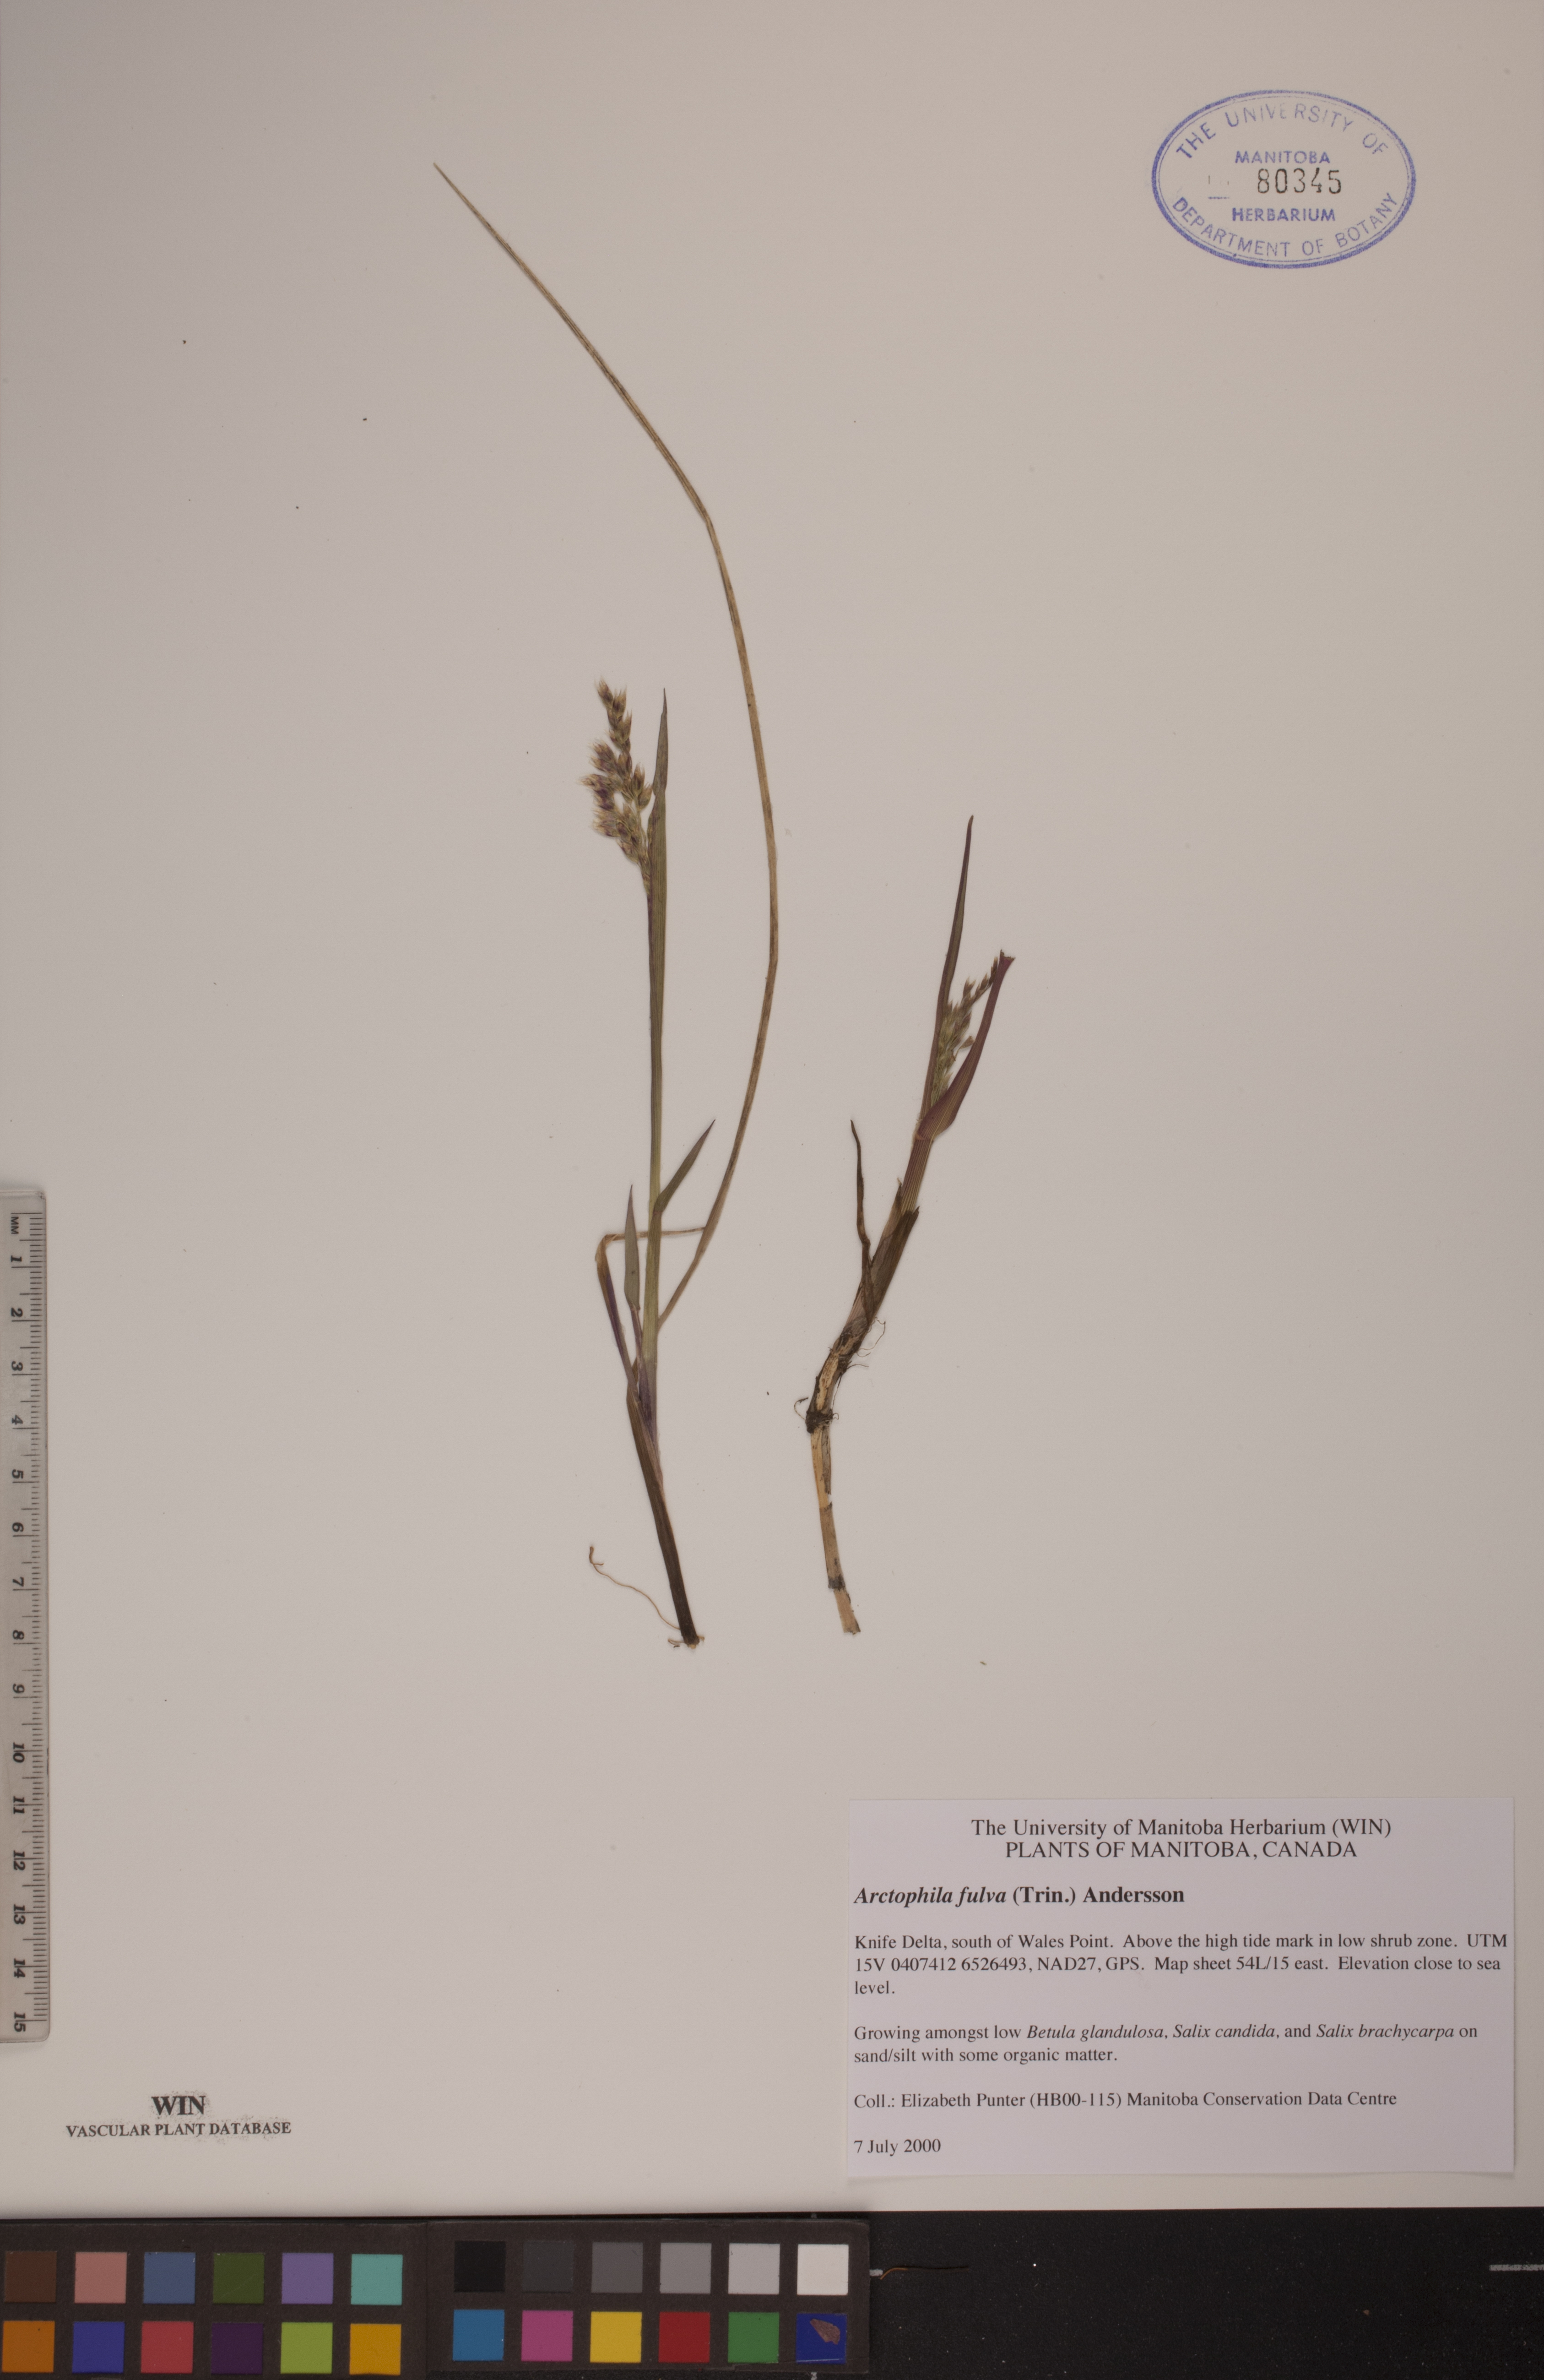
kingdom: Plantae
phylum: Tracheophyta
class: Liliopsida
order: Poales
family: Poaceae
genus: Dupontia
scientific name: Dupontia fulva
